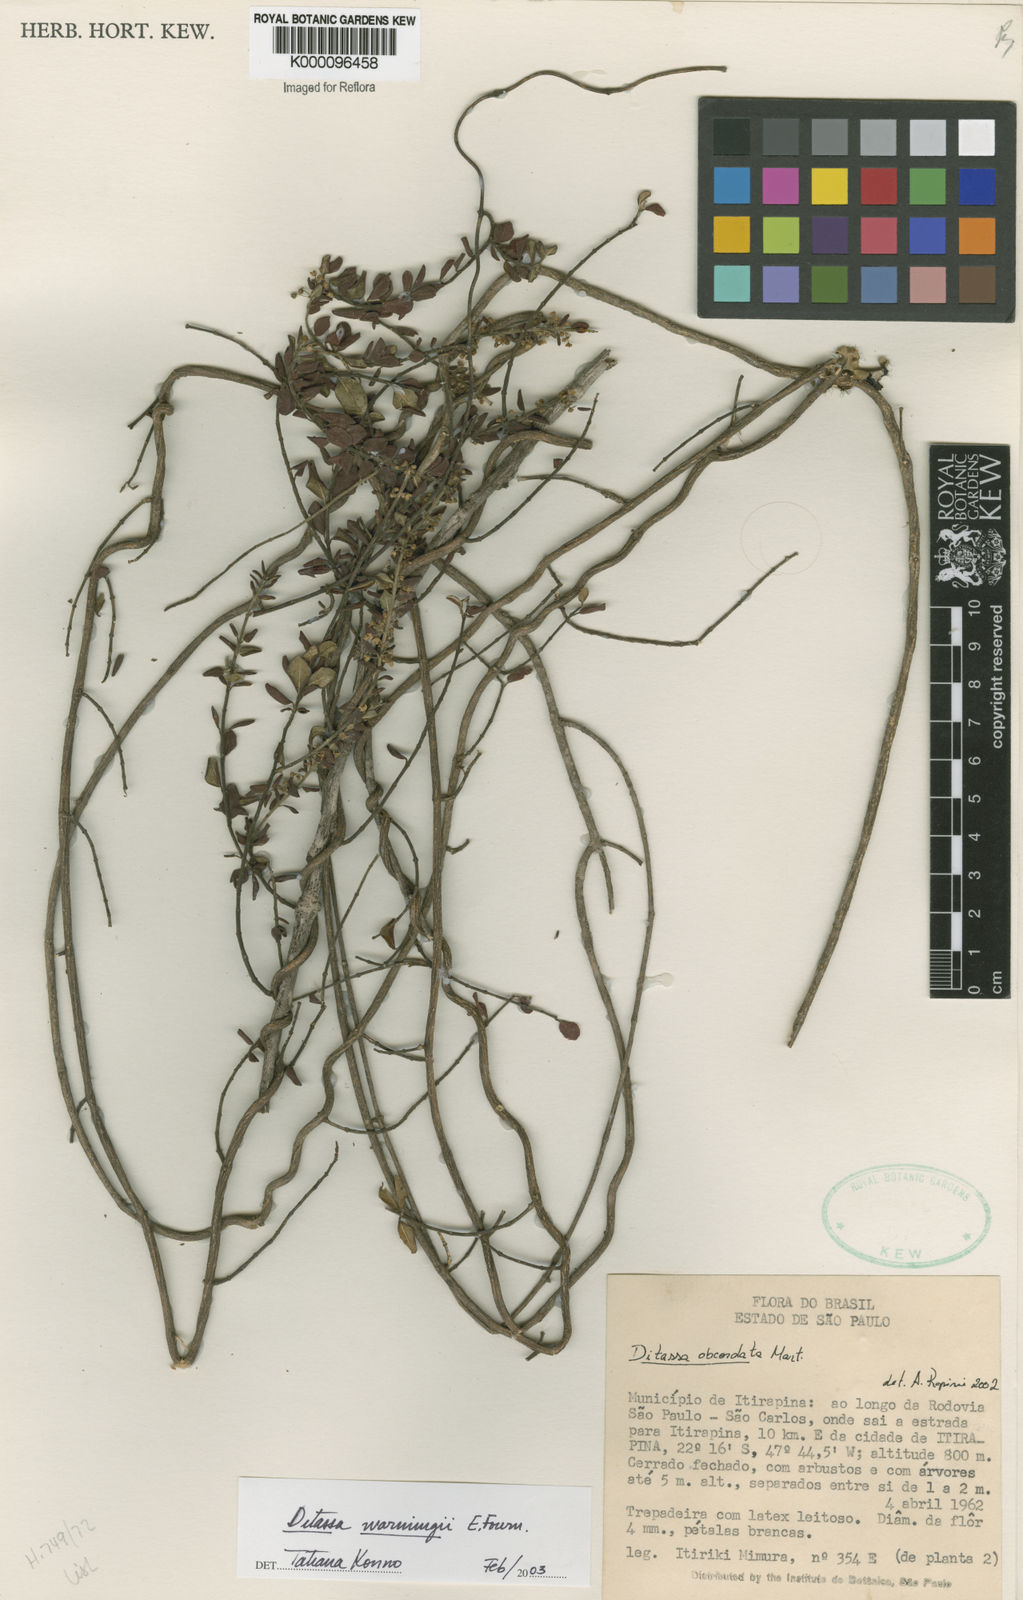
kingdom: Plantae
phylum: Tracheophyta
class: Magnoliopsida
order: Gentianales
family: Apocynaceae
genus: Ditassa
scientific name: Ditassa obcordata
